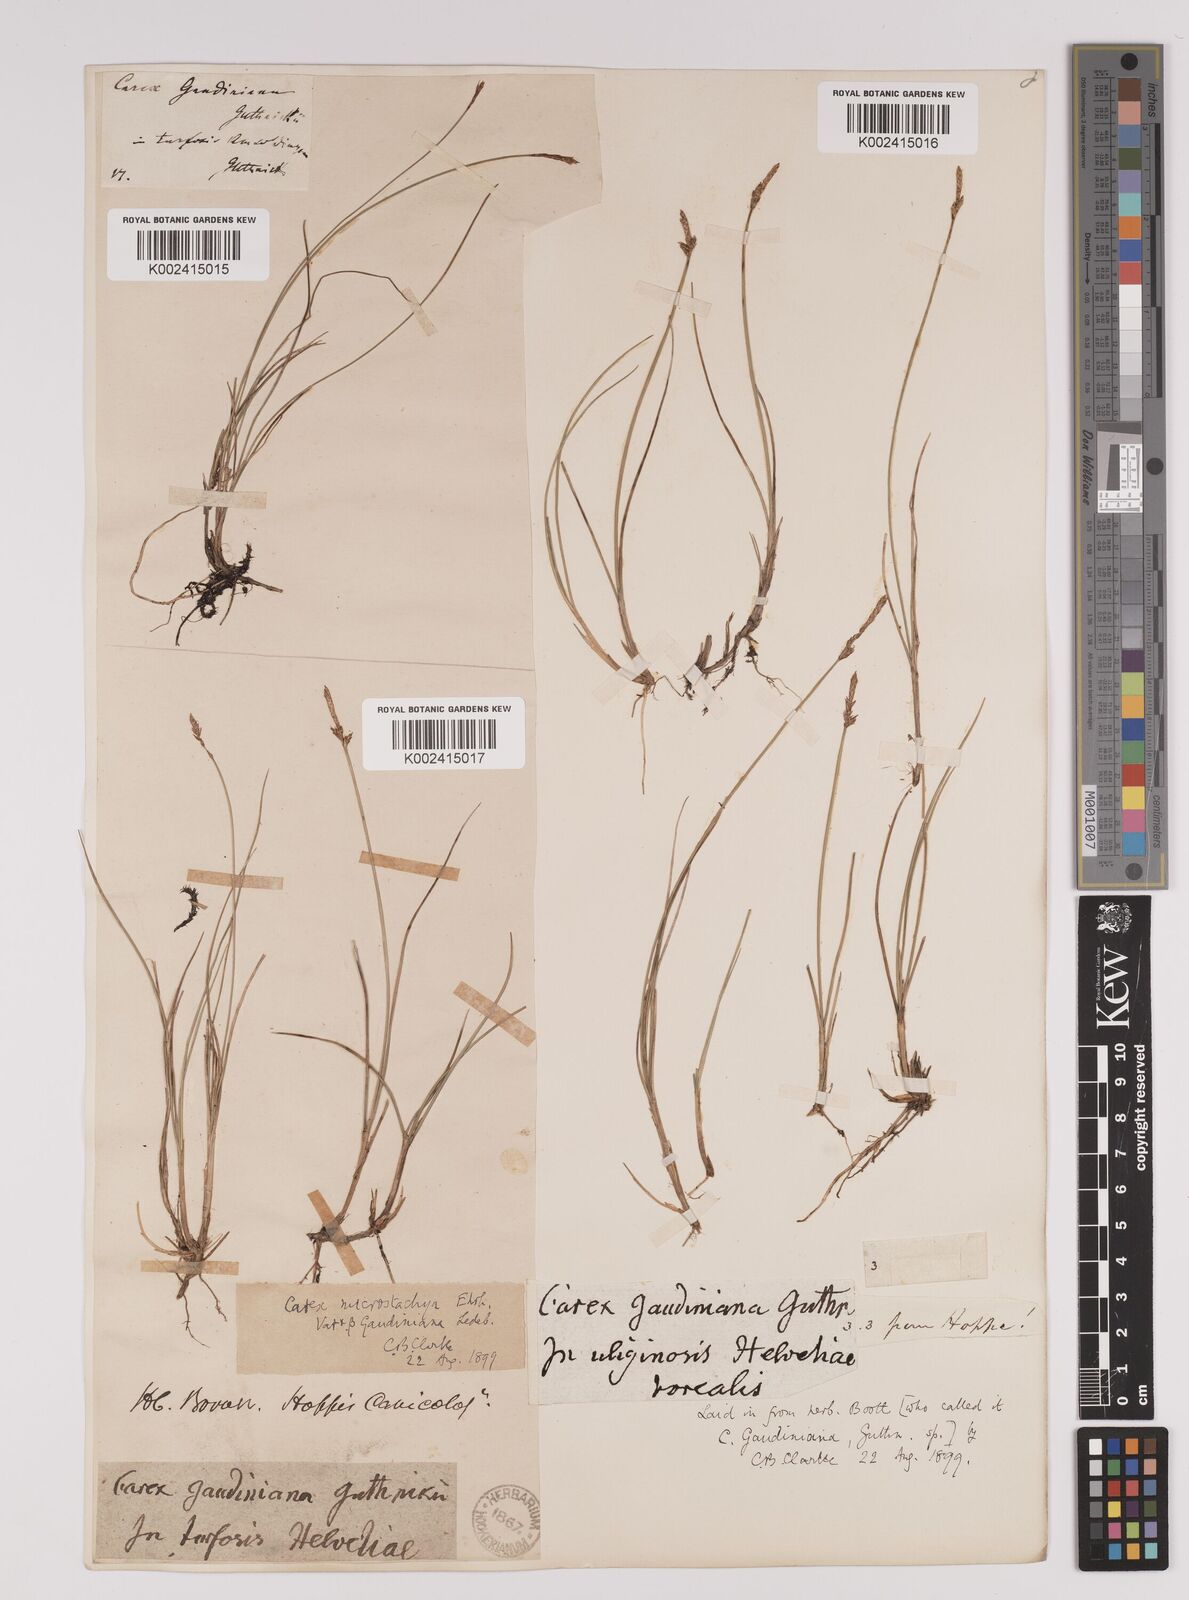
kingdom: Plantae
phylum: Tracheophyta
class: Liliopsida
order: Poales
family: Cyperaceae
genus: Carex
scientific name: Carex dioica
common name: Dioecious sedge
